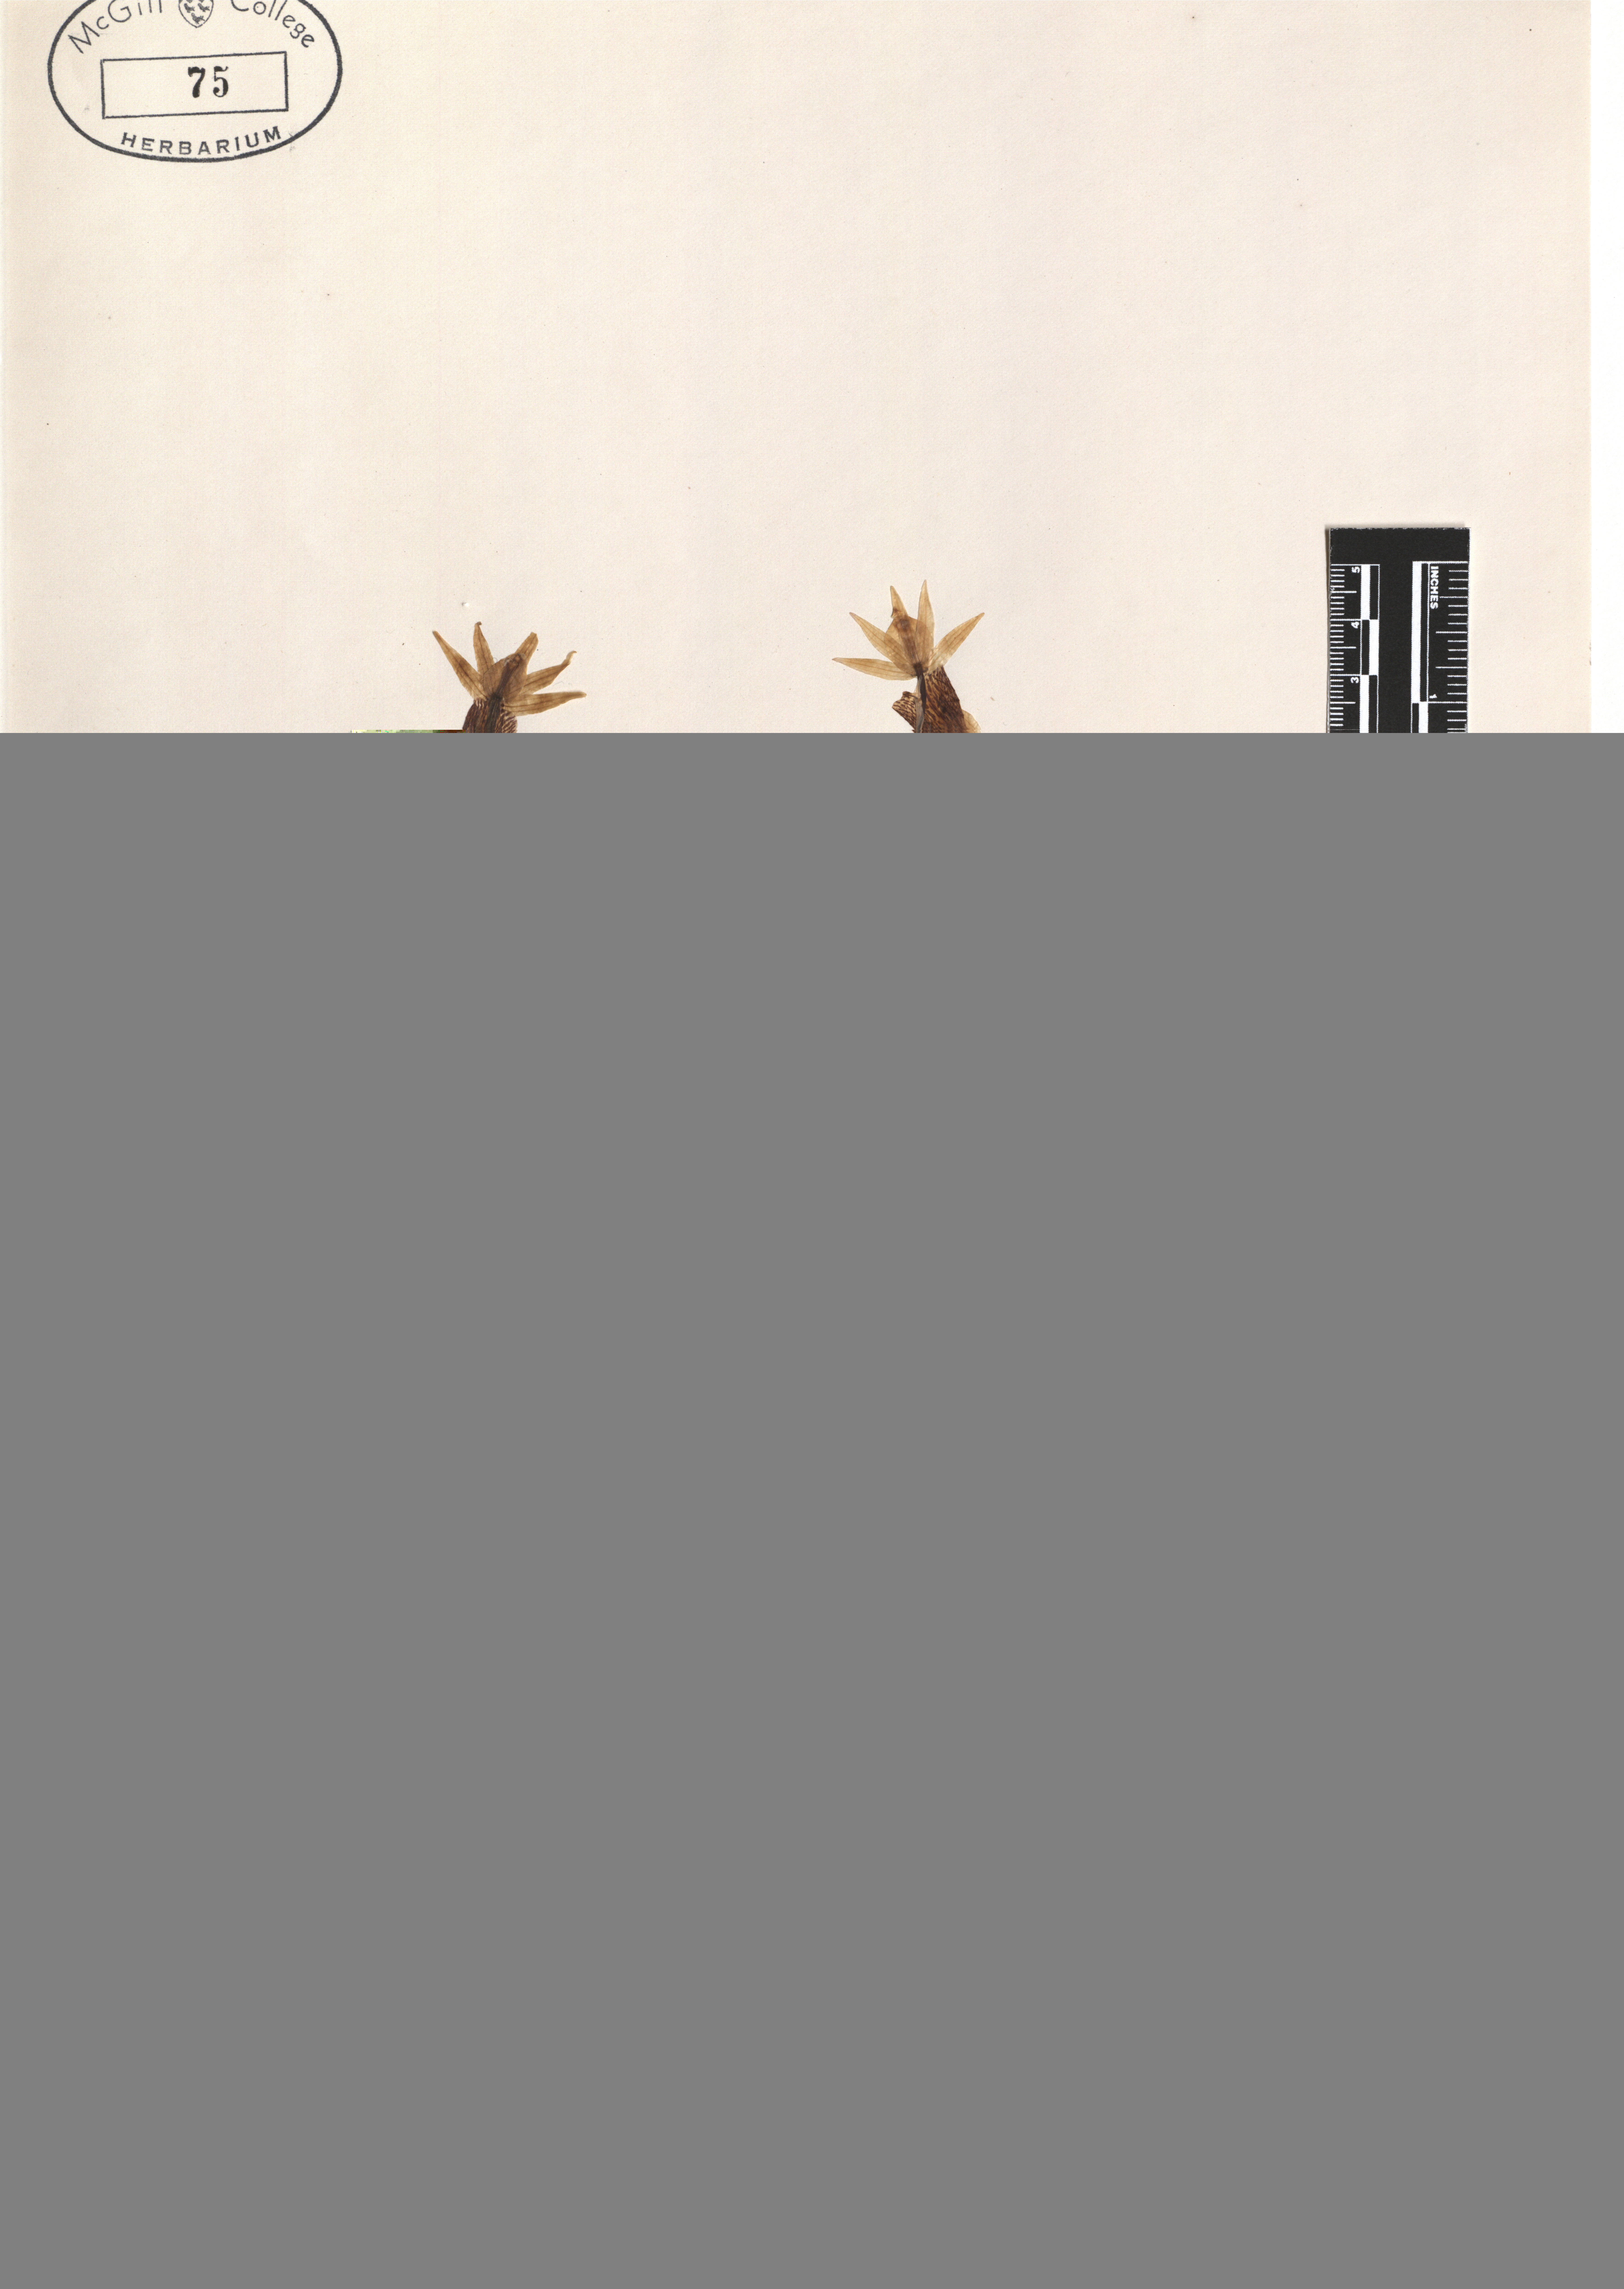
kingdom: Plantae
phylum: Tracheophyta
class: Liliopsida
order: Asparagales
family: Orchidaceae
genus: Calypso
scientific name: Calypso bulbosa
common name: Calypso
